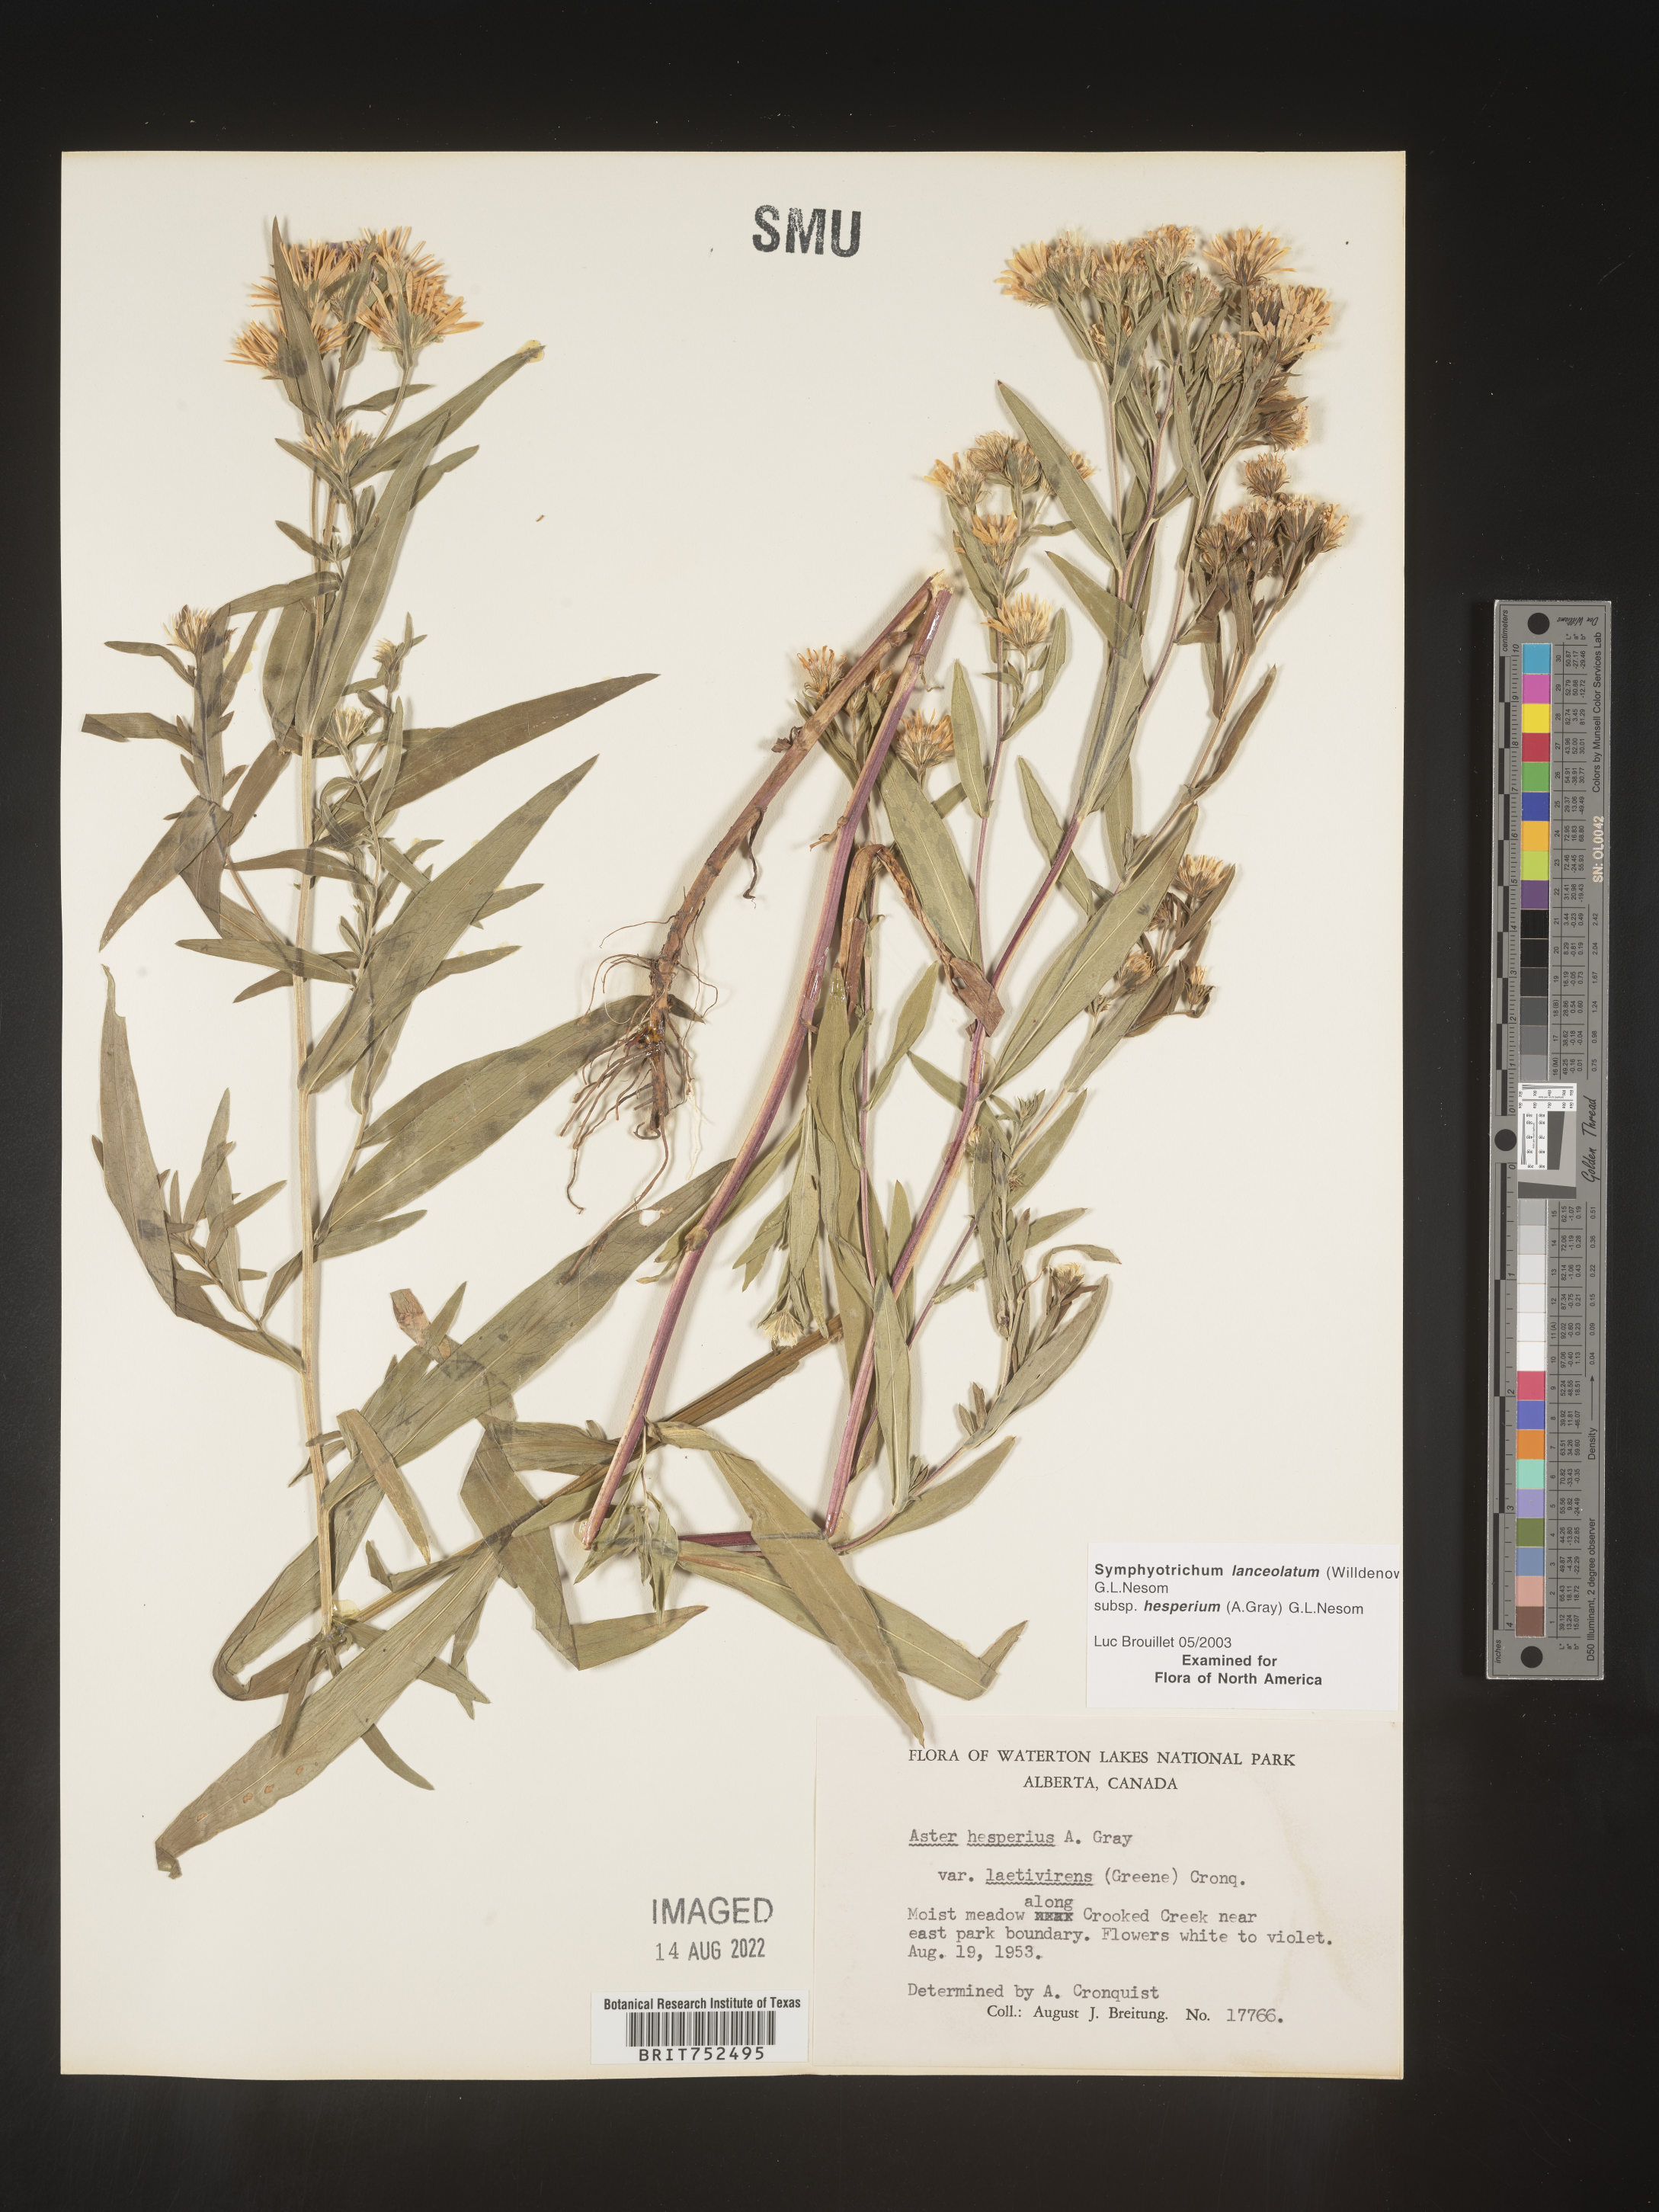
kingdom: Plantae
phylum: Tracheophyta
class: Magnoliopsida
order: Asterales
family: Asteraceae
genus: Symphyotrichum
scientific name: Symphyotrichum lanceolatum
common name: Panicled aster
